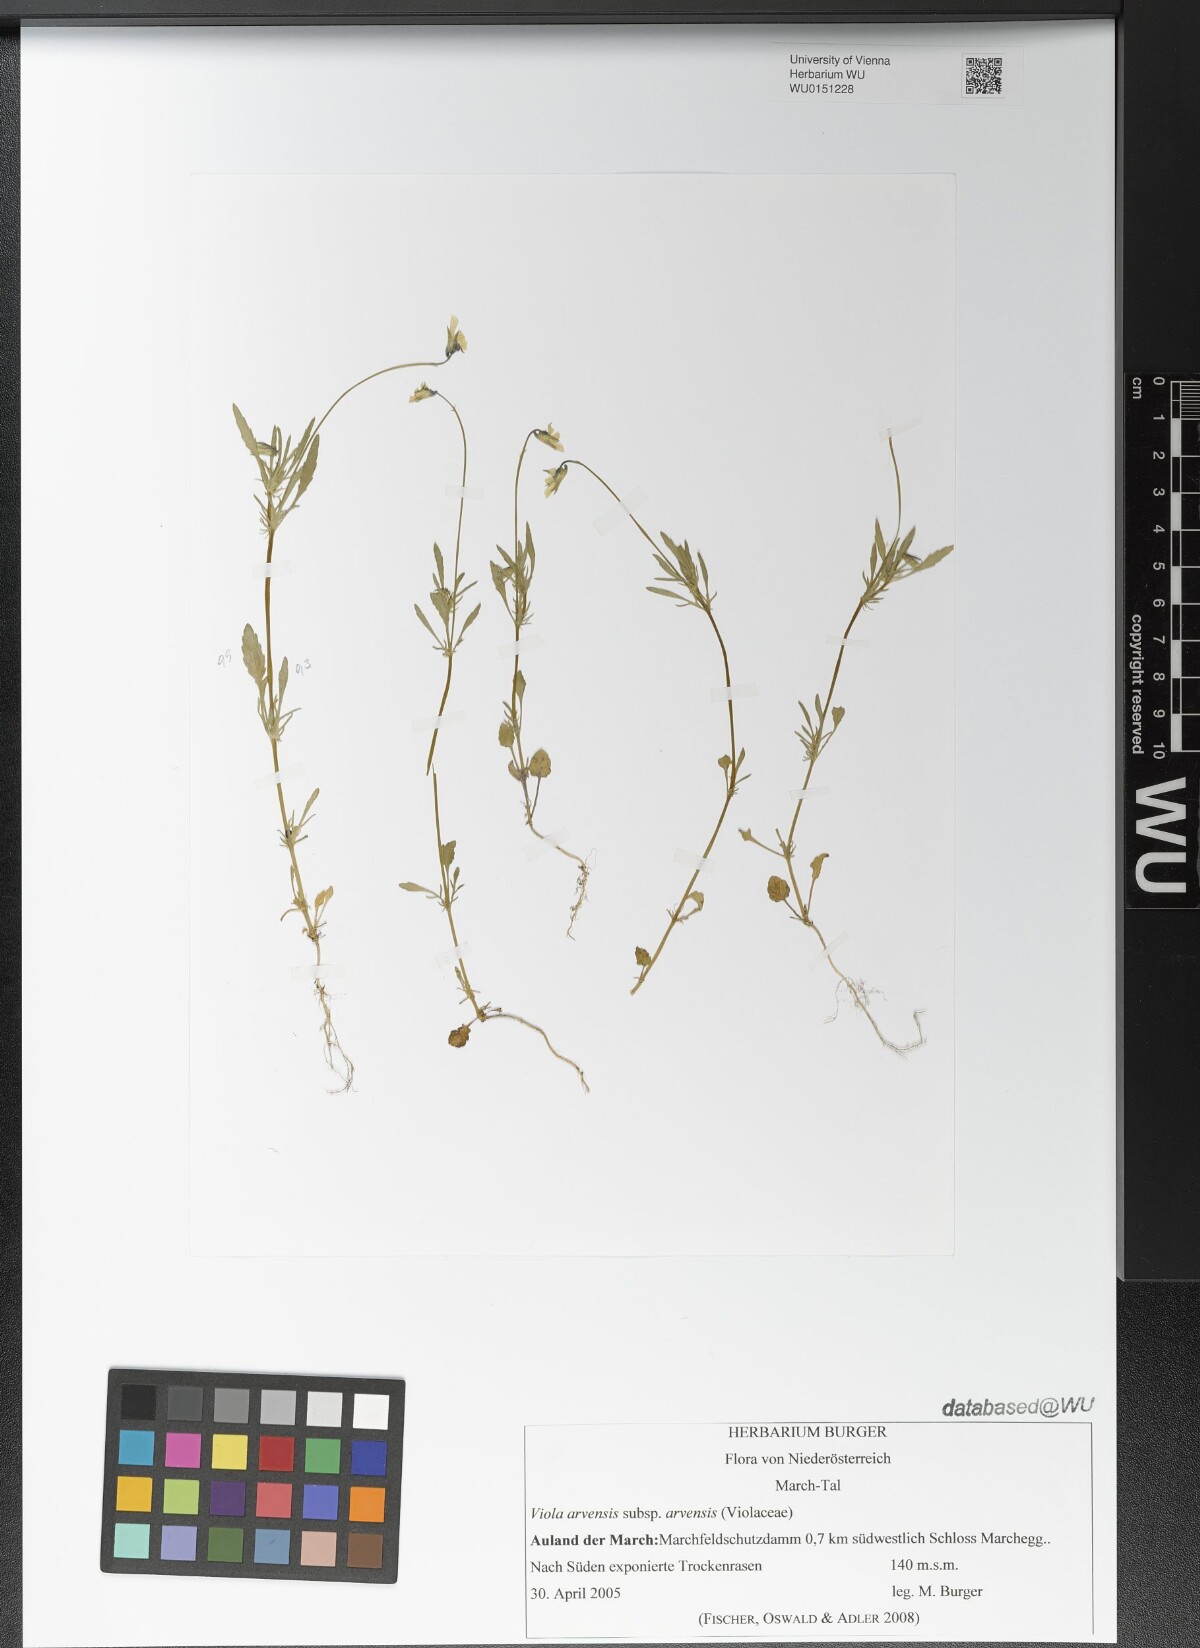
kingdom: Plantae
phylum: Tracheophyta
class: Magnoliopsida
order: Malpighiales
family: Violaceae
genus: Viola
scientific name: Viola arvensis
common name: Field pansy
